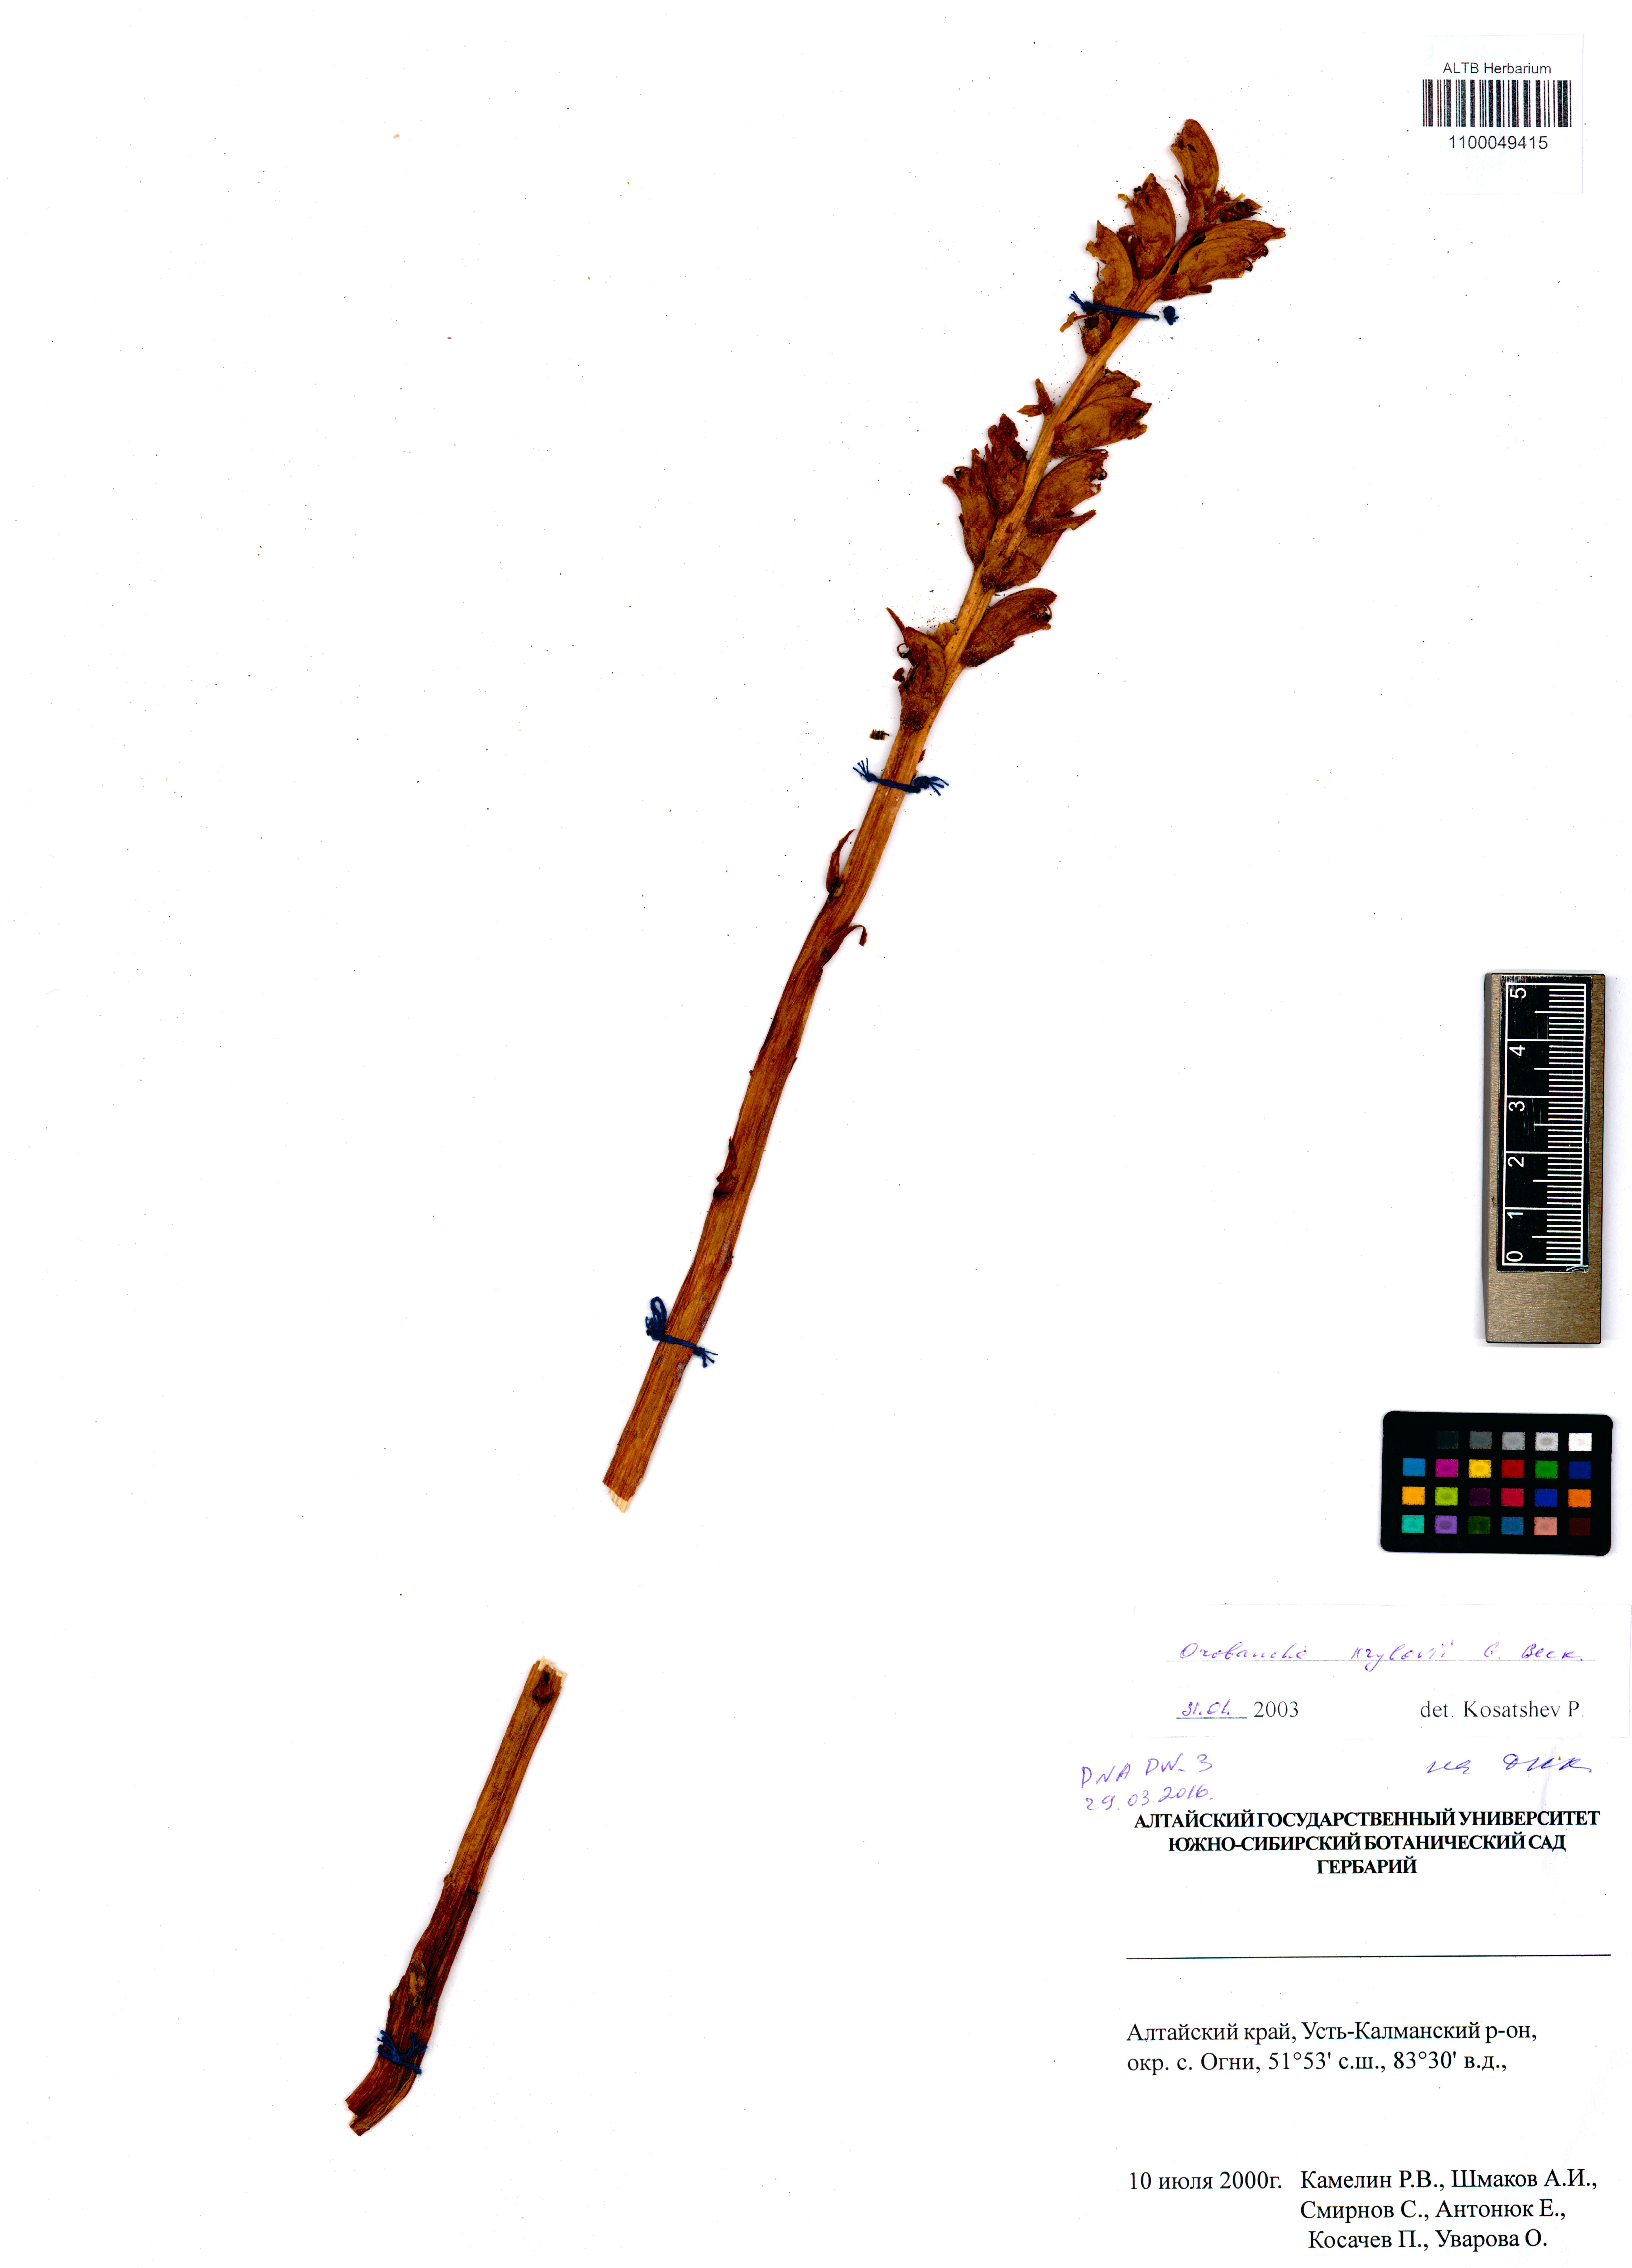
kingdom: Plantae
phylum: Tracheophyta
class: Magnoliopsida
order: Lamiales
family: Orobanchaceae
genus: Orobanche
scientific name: Orobanche krylowii
